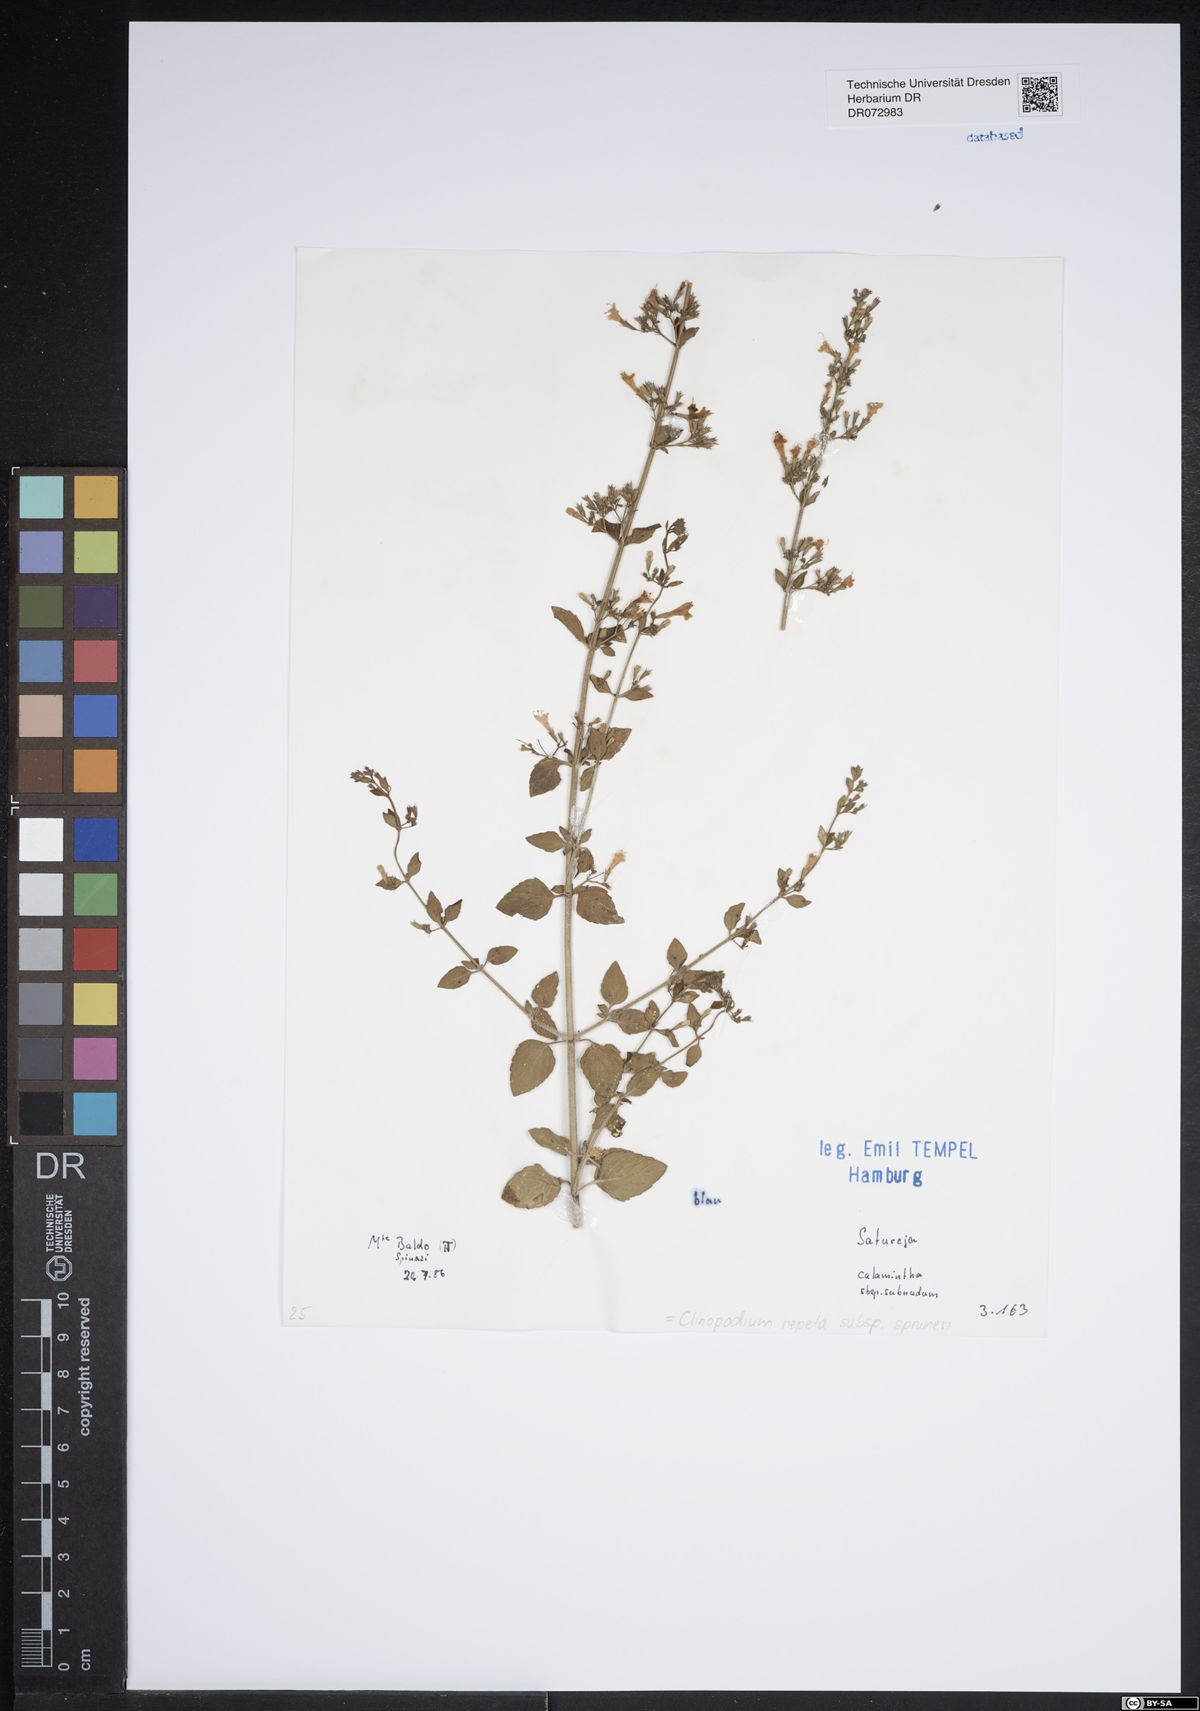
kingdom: Plantae
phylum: Tracheophyta
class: Magnoliopsida
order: Lamiales
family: Lamiaceae
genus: Clinopodium
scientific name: Clinopodium nepeta
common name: Lesser calamint
